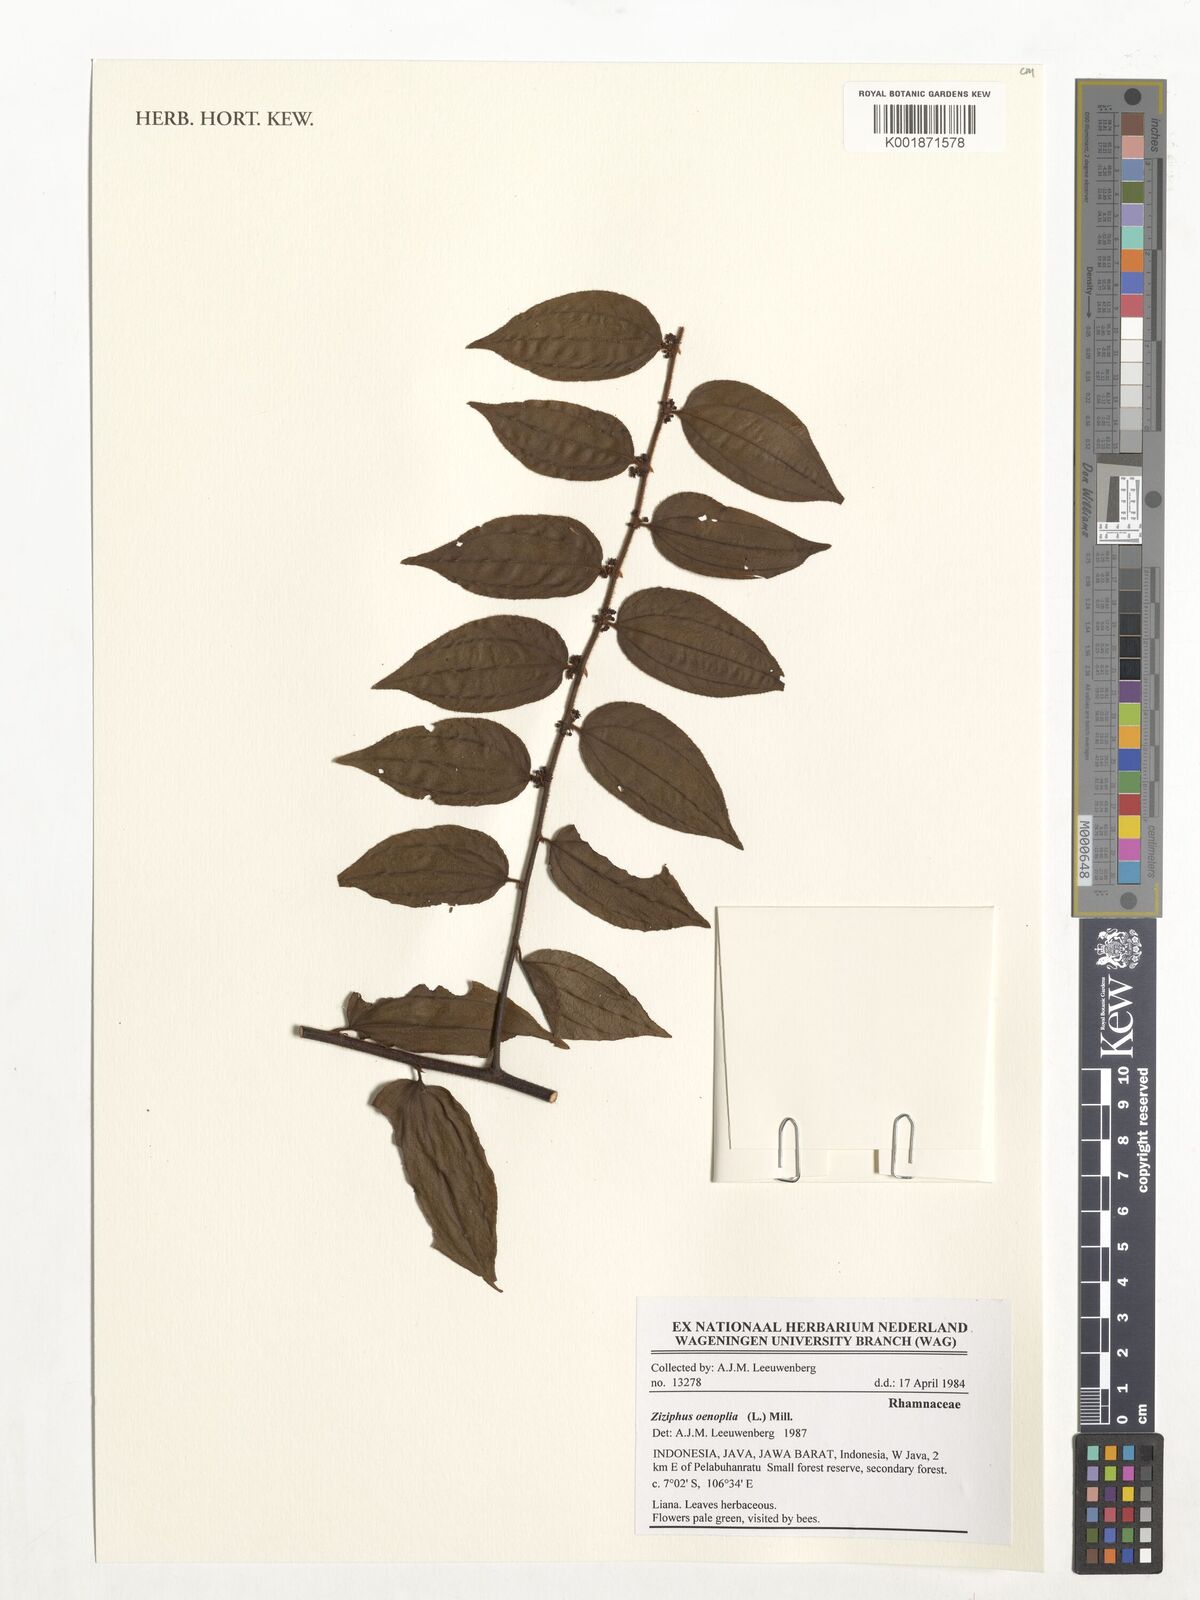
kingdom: Plantae
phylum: Tracheophyta
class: Magnoliopsida
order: Rosales
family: Rhamnaceae
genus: Ziziphus
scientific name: Ziziphus oenopolia
